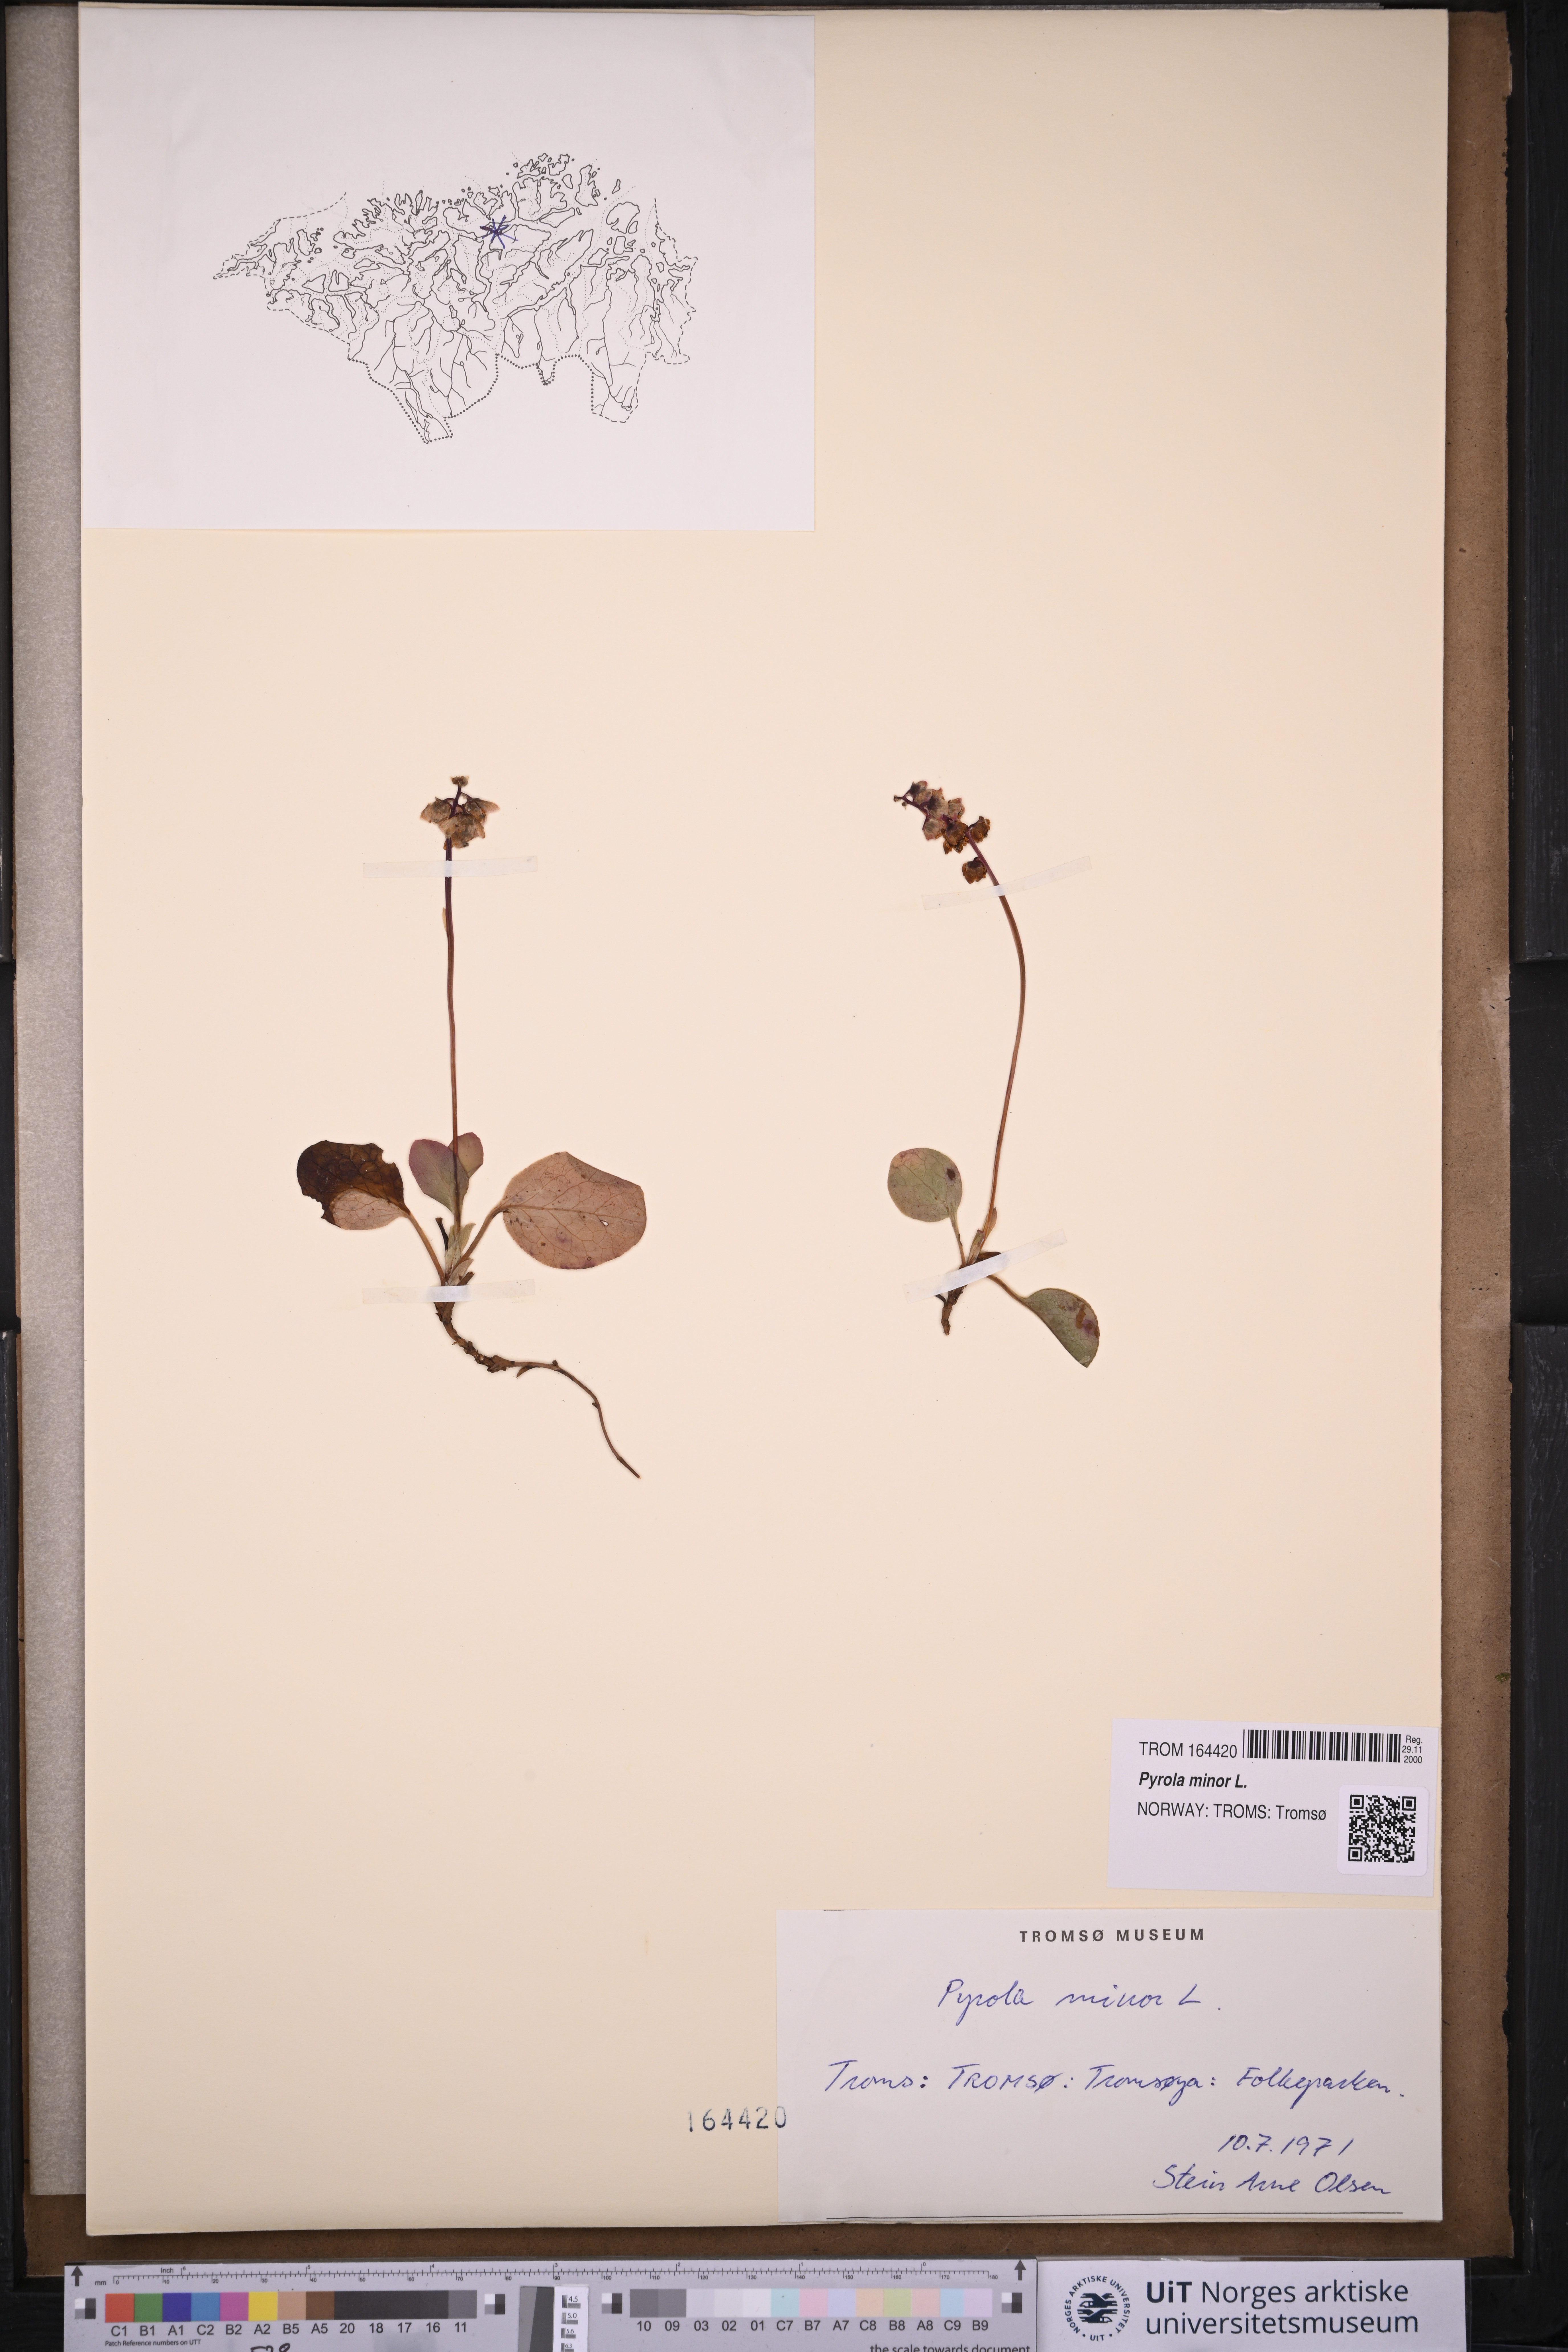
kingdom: Plantae
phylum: Tracheophyta
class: Magnoliopsida
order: Ericales
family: Ericaceae
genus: Pyrola
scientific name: Pyrola minor
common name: Common wintergreen
